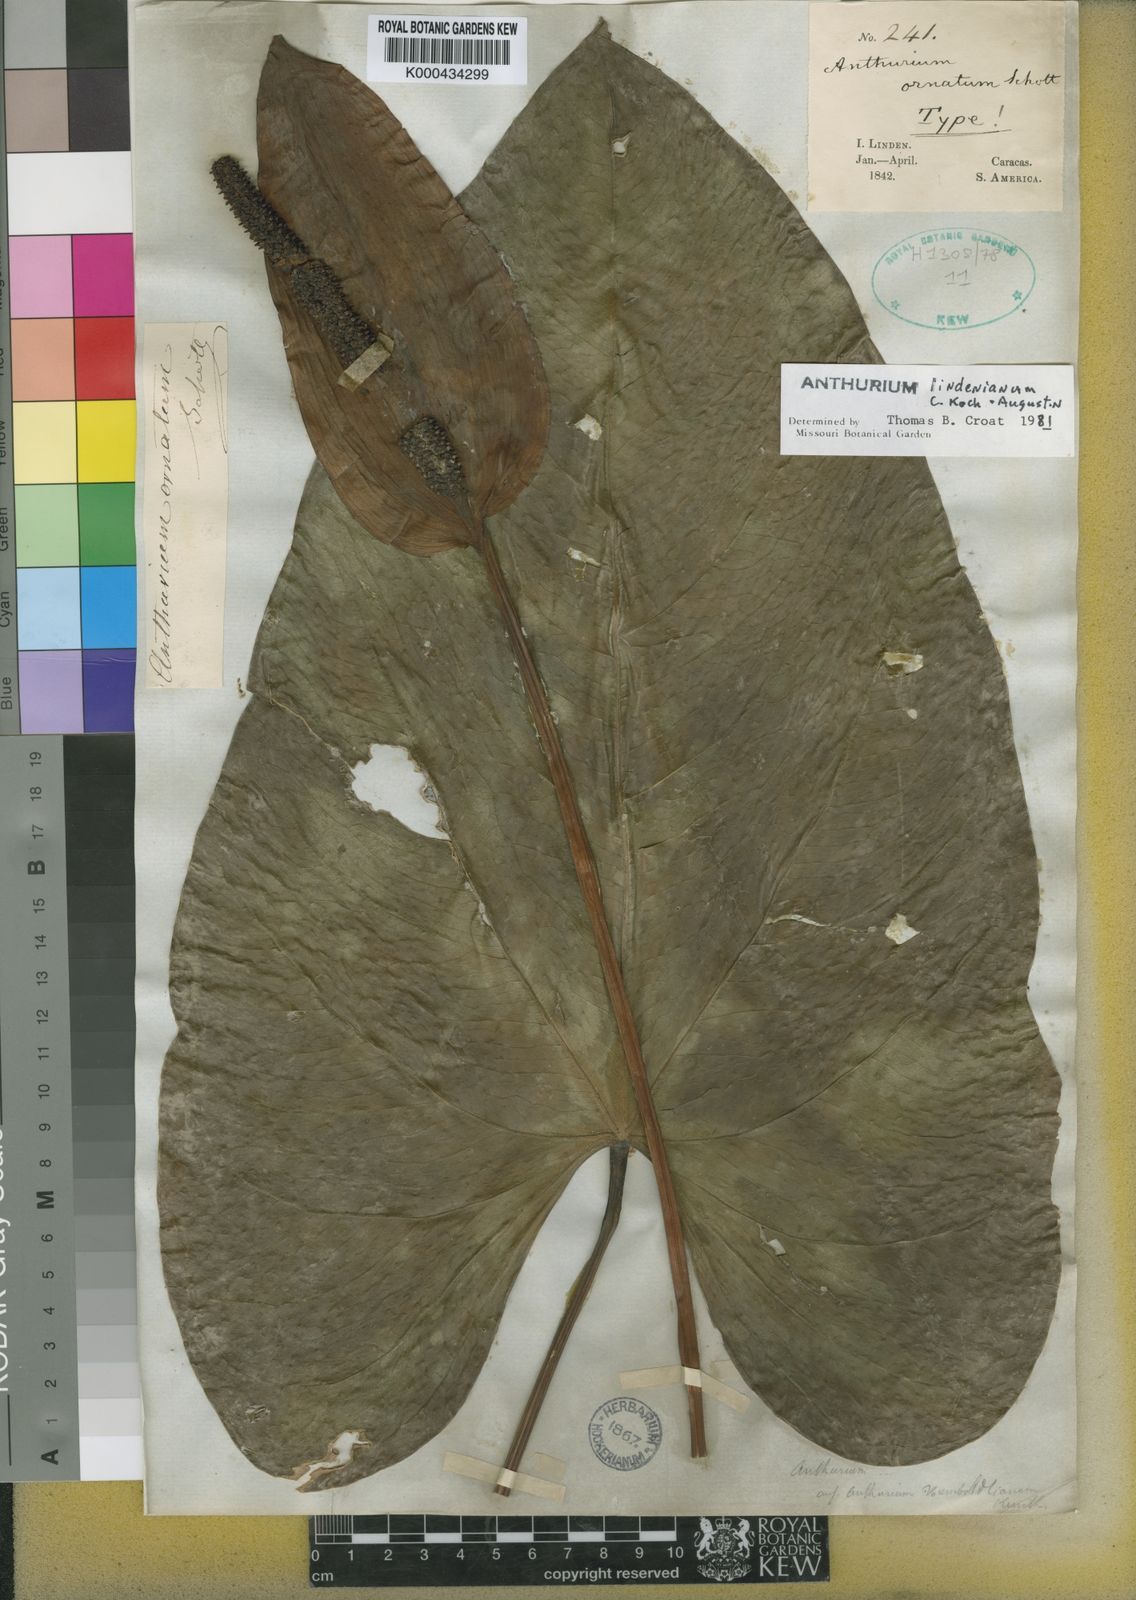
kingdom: Plantae
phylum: Tracheophyta
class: Liliopsida
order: Alismatales
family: Araceae
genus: Anthurium
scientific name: Anthurium nymphaeifolium
